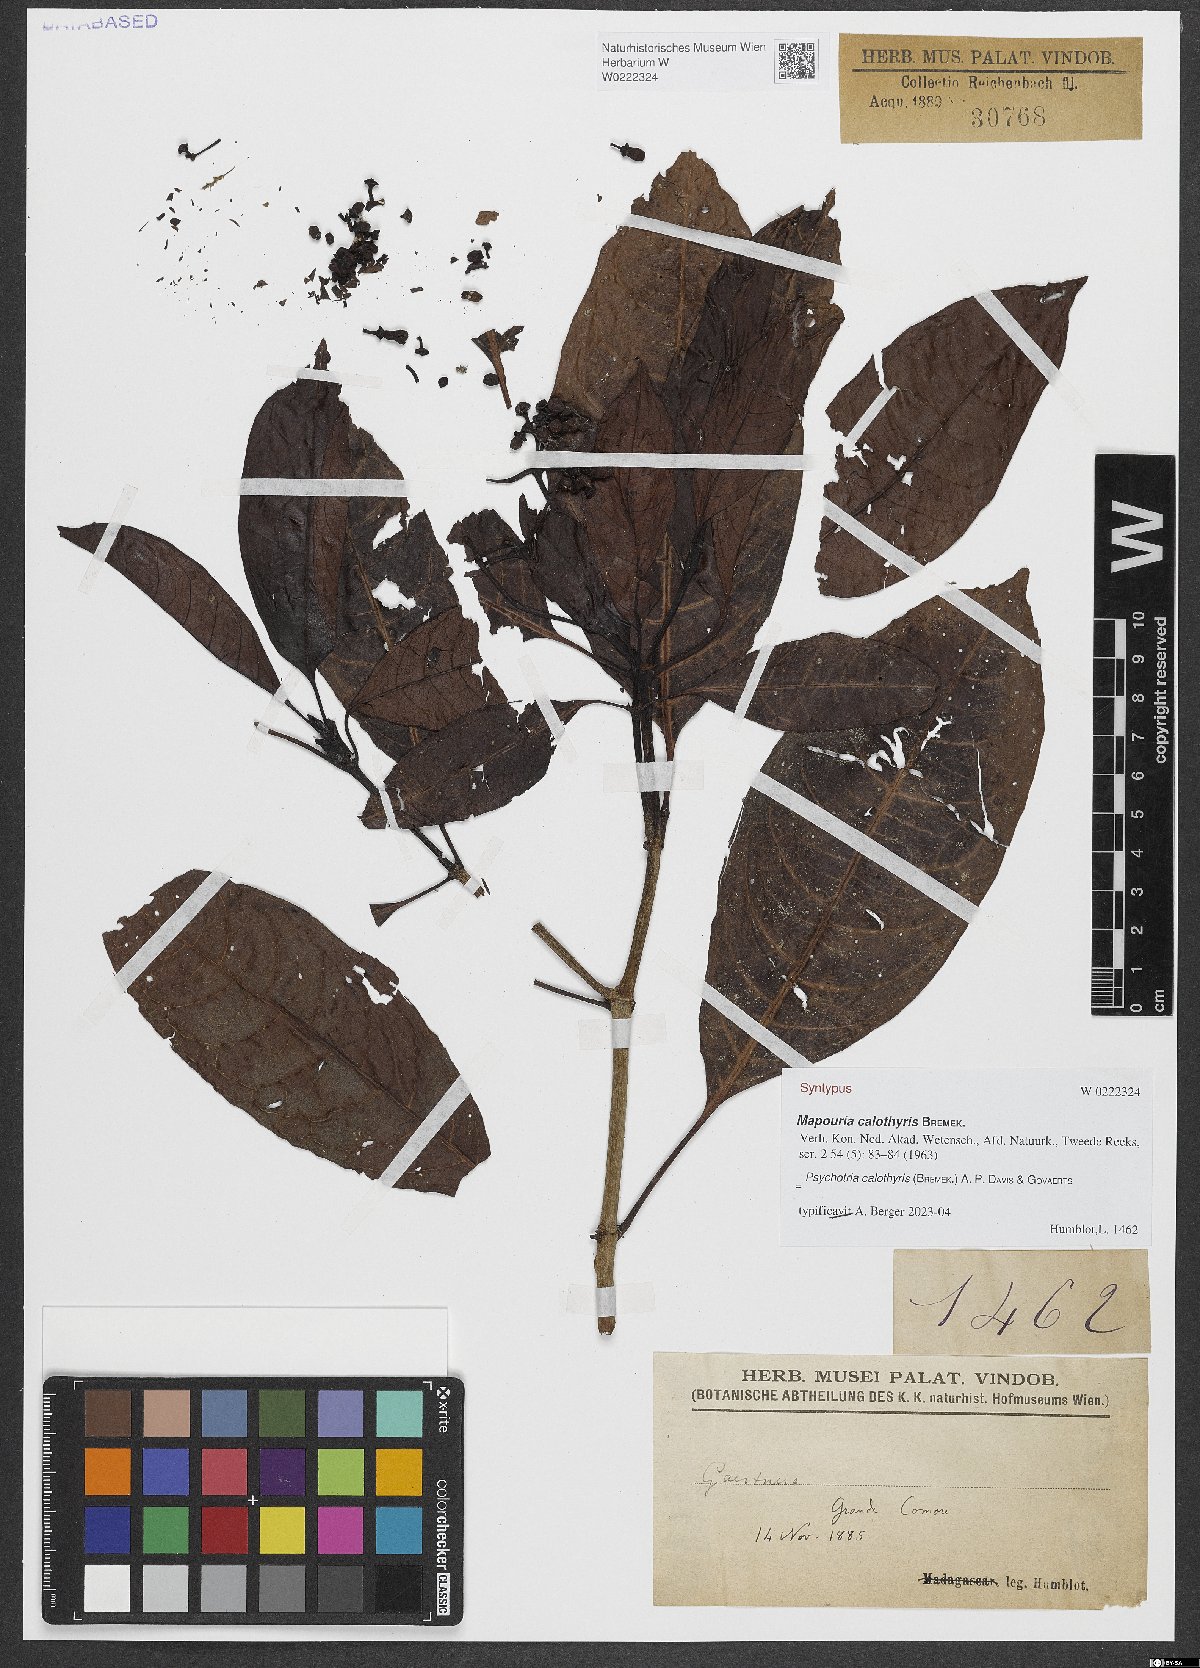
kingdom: Plantae
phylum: Tracheophyta
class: Magnoliopsida
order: Gentianales
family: Rubiaceae
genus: Psychotria
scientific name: Psychotria calothyris
